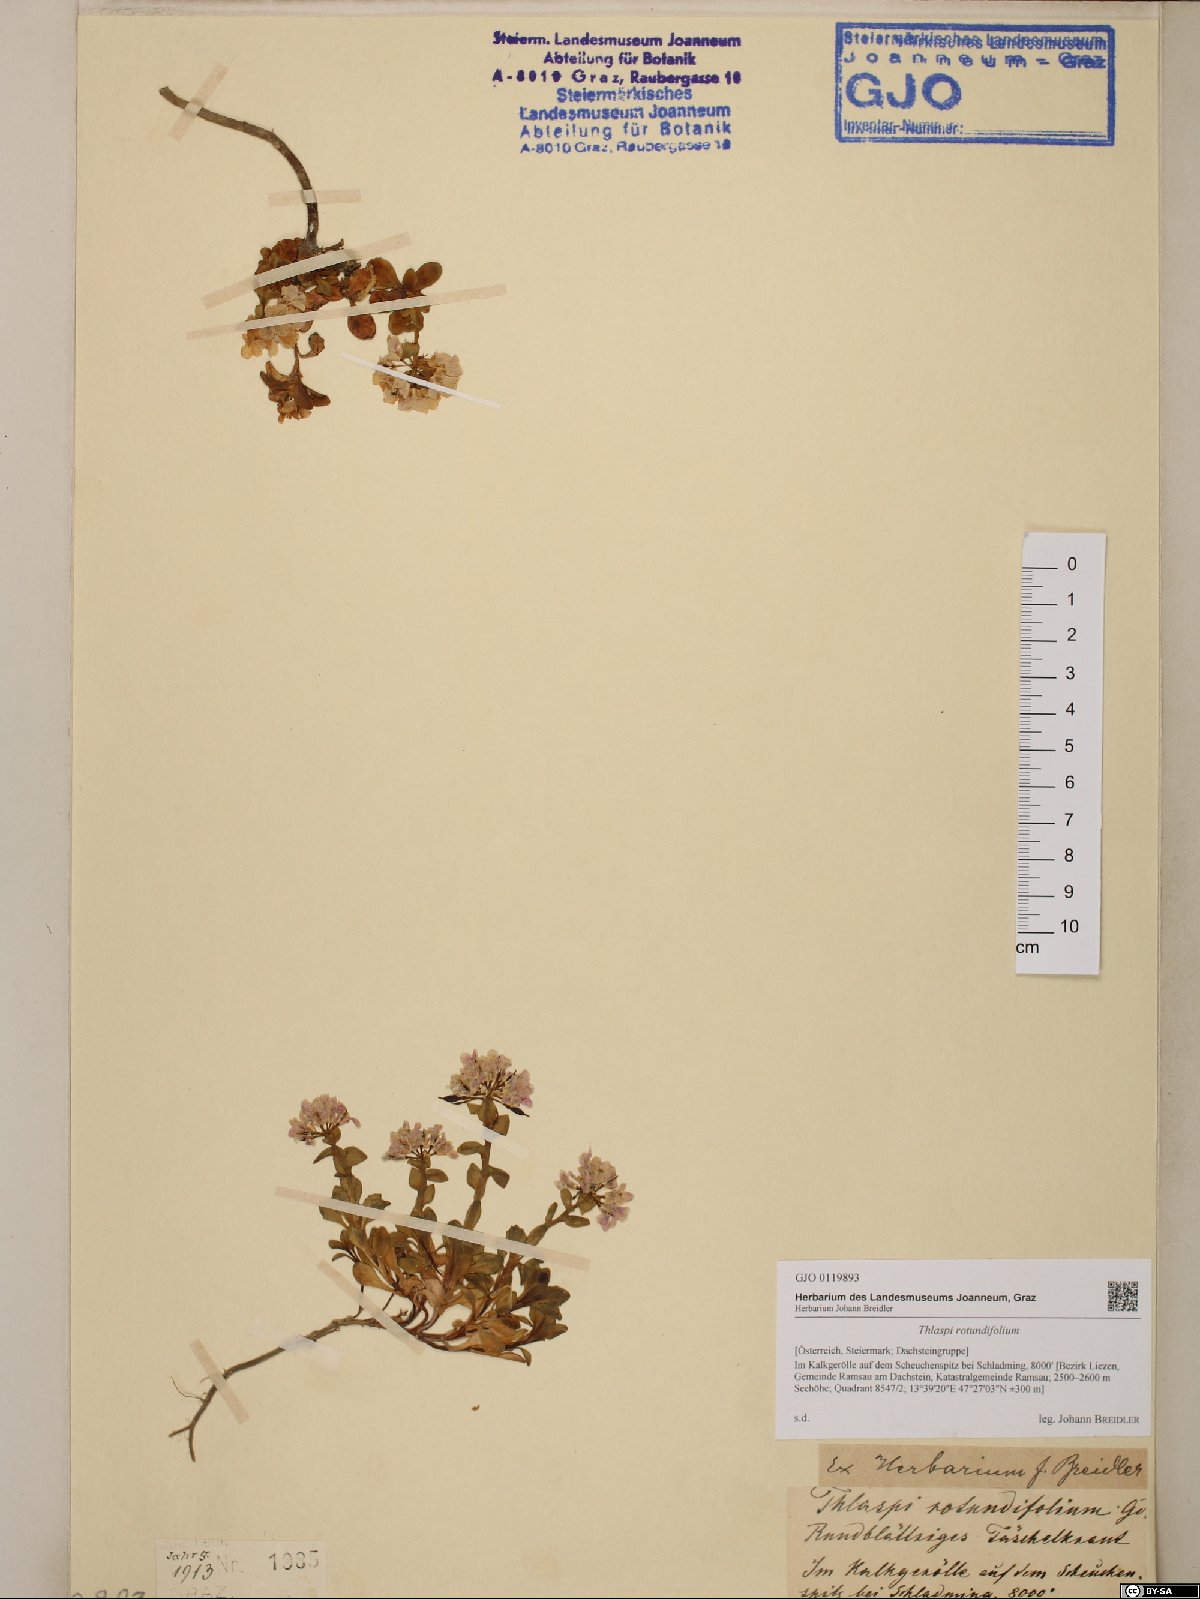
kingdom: Plantae
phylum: Tracheophyta
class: Magnoliopsida
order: Brassicales
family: Brassicaceae
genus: Noccaea
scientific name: Noccaea rotundifolia
